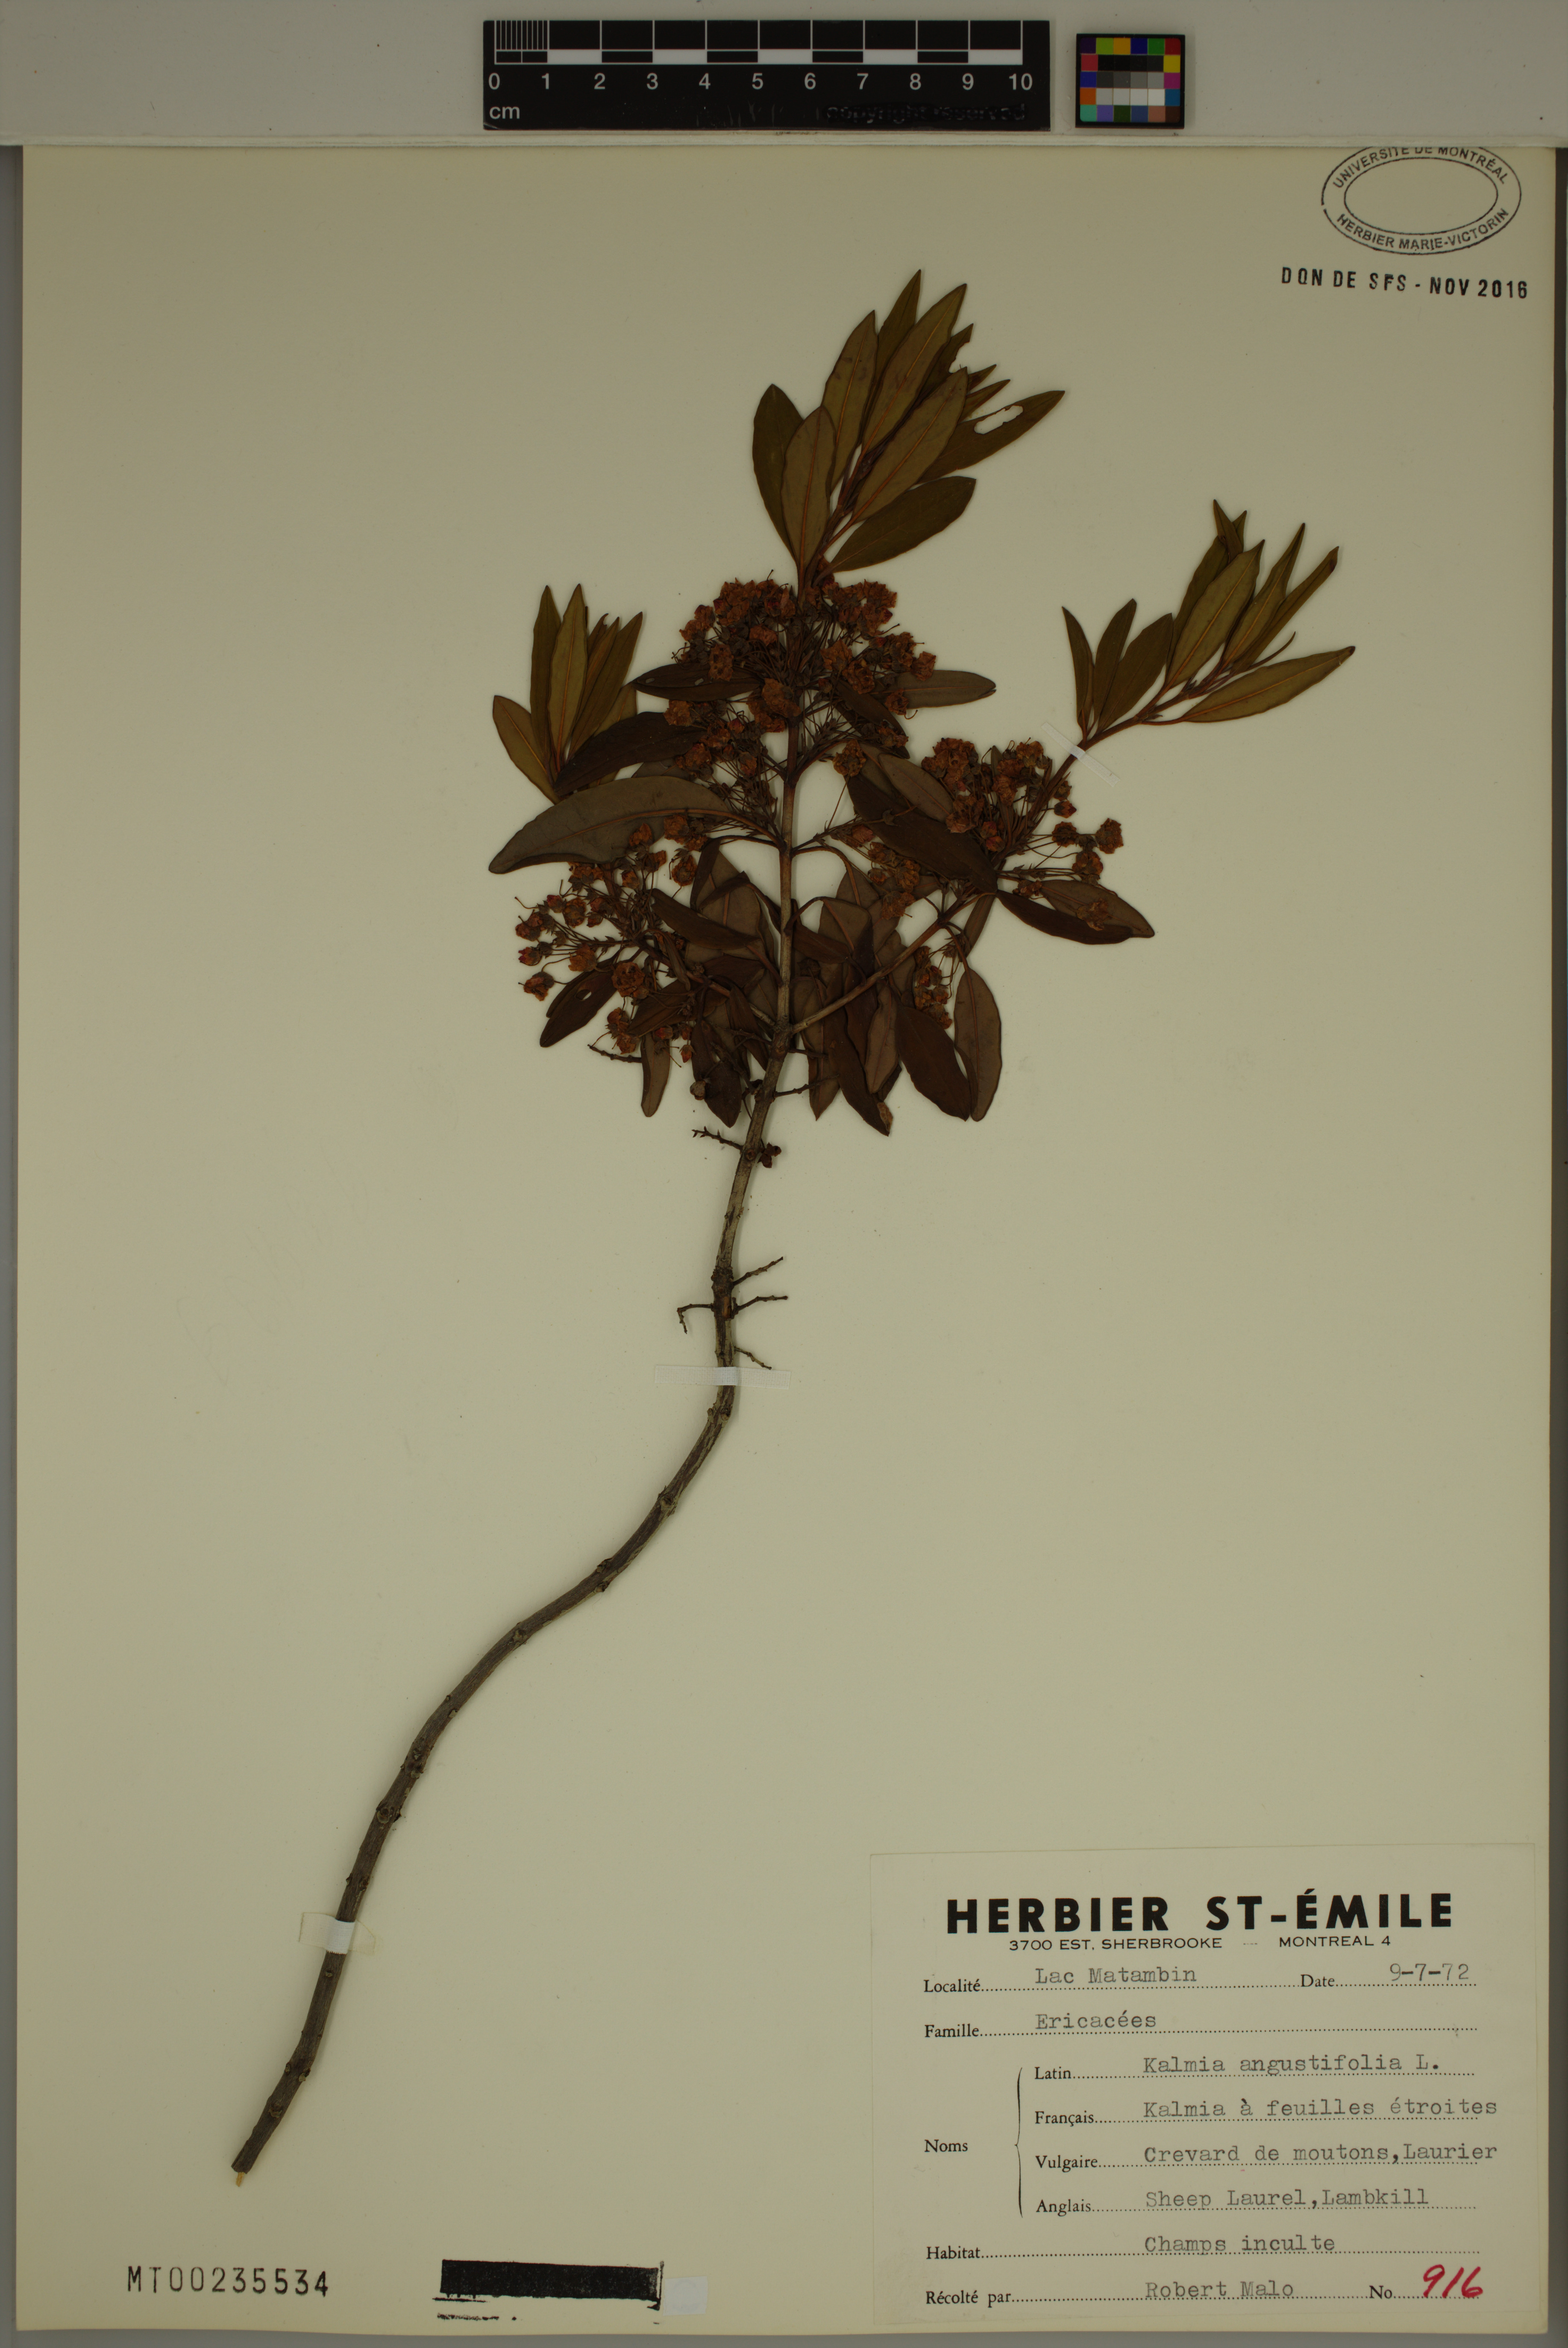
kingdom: Plantae
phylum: Tracheophyta
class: Magnoliopsida
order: Ericales
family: Ericaceae
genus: Kalmia
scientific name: Kalmia angustifolia
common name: Sheep-laurel
